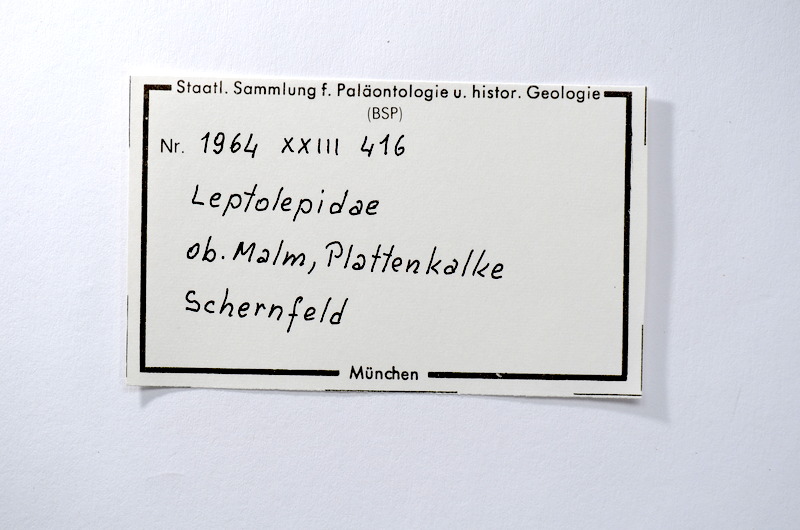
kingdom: Animalia
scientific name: Animalia
